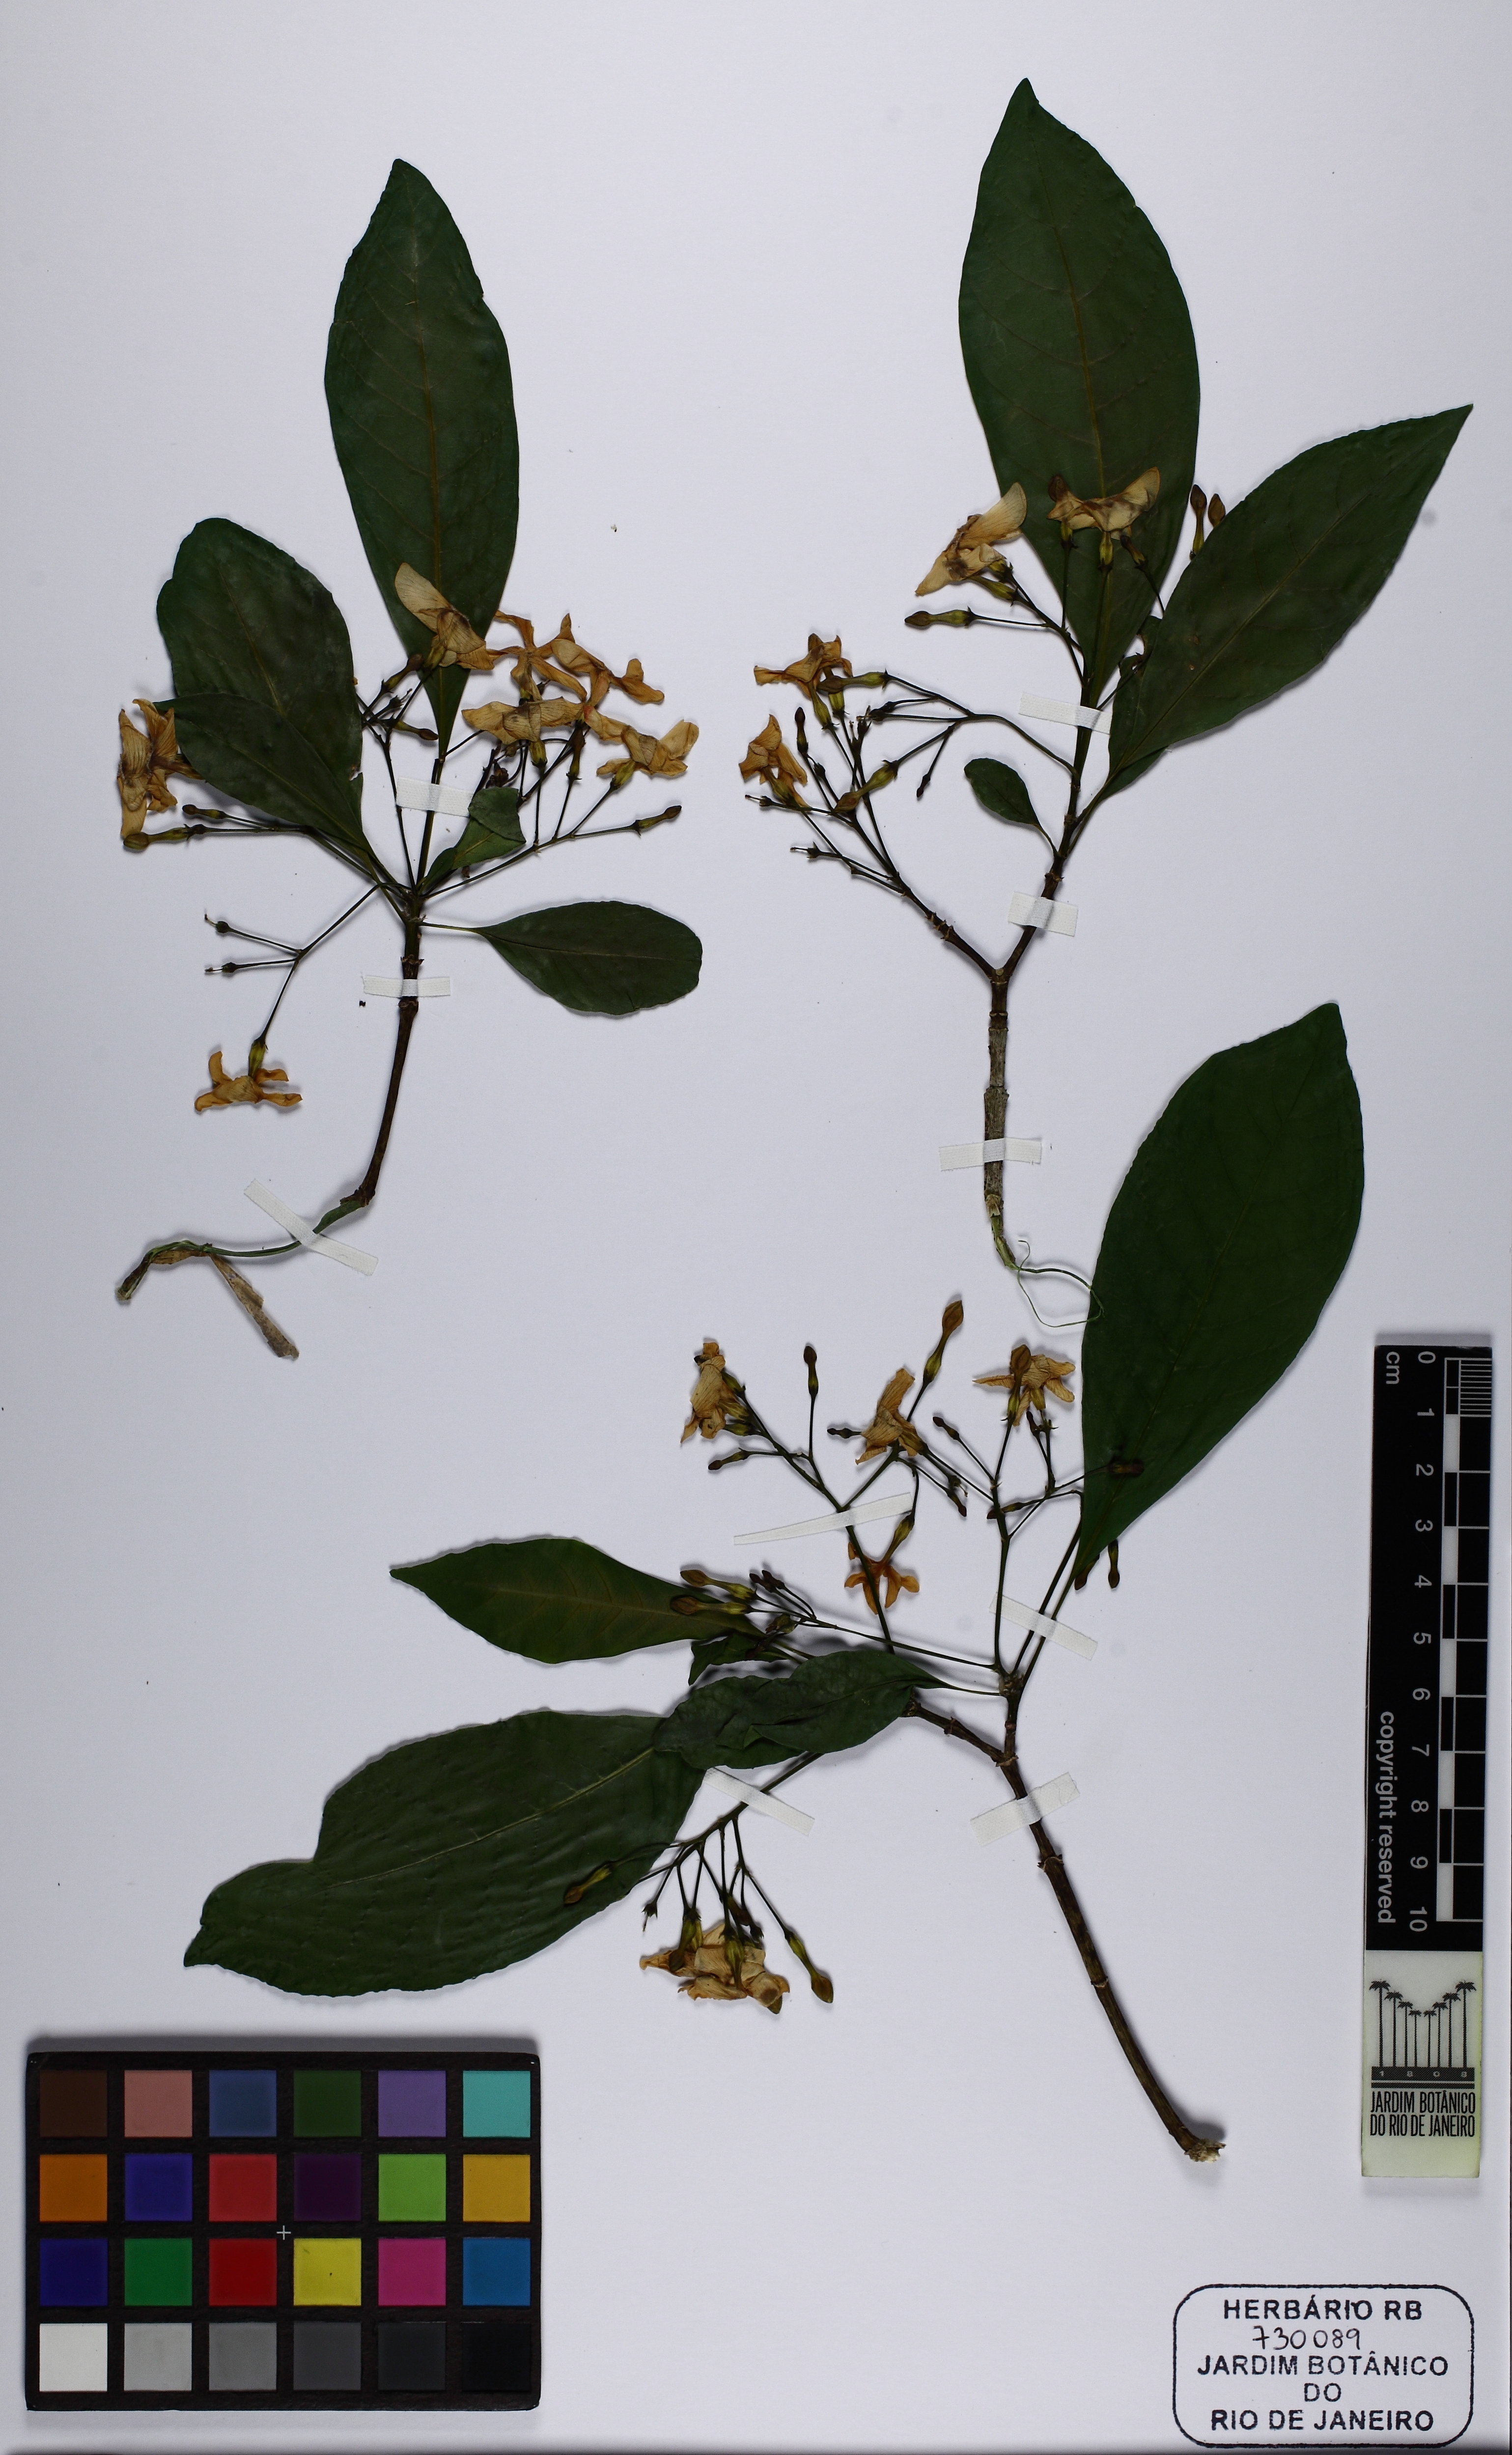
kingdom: Plantae
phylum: Tracheophyta
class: Magnoliopsida
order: Gentianales
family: Apocynaceae
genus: Tabernaemontana
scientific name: Tabernaemontana laeta
